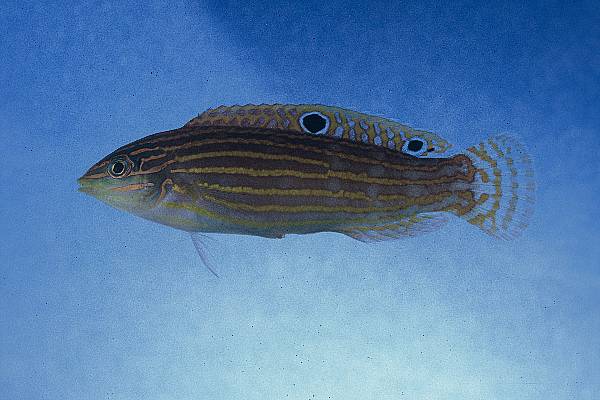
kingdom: Animalia
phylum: Chordata
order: Perciformes
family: Labridae
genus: Halichoeres
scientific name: Halichoeres cosmetus
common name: Adorned wrasse
